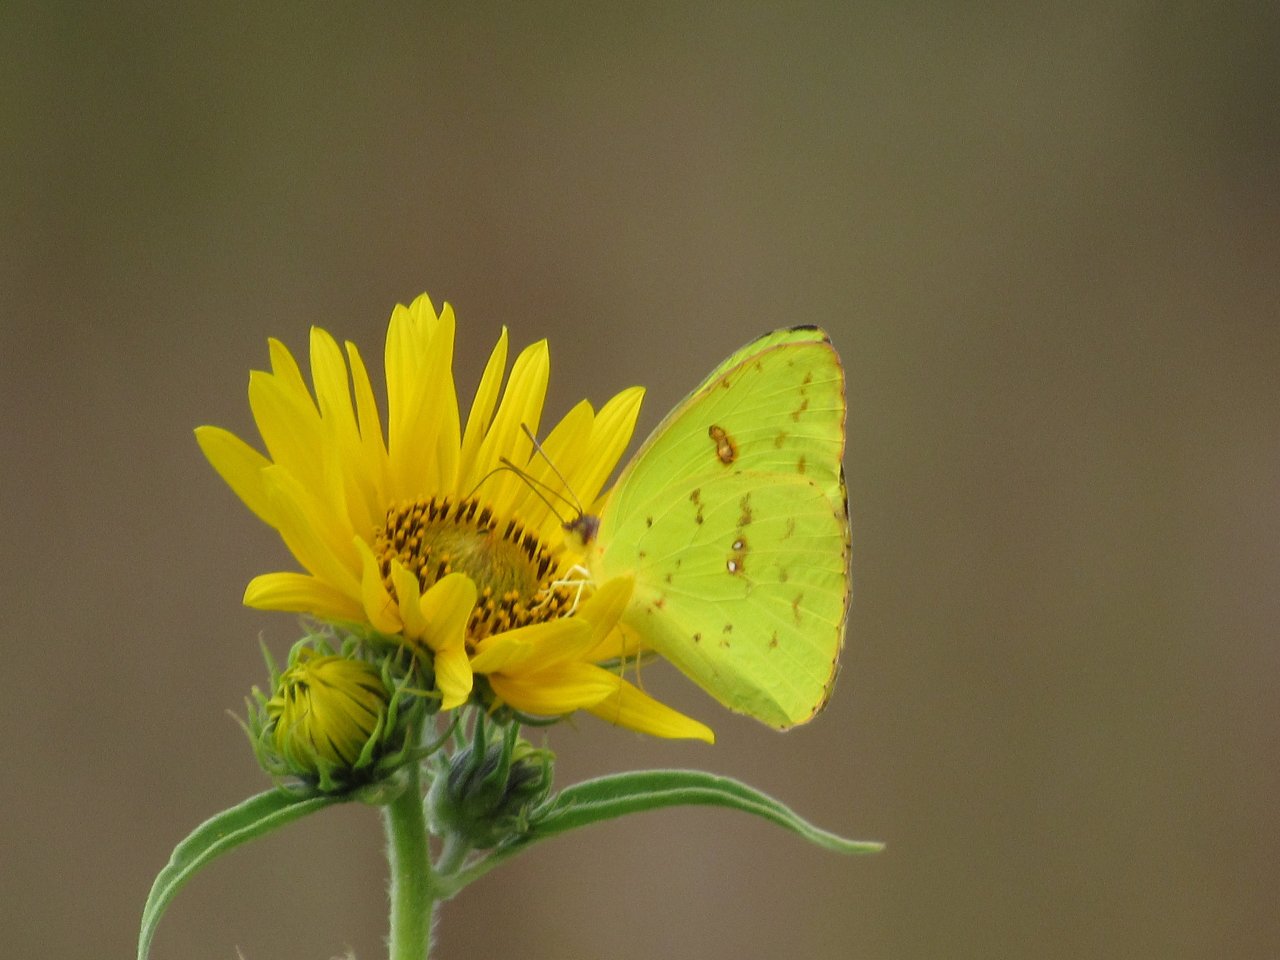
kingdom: Animalia
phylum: Arthropoda
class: Insecta
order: Lepidoptera
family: Pieridae
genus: Phoebis
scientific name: Phoebis sennae
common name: Cloudless Sulphur
